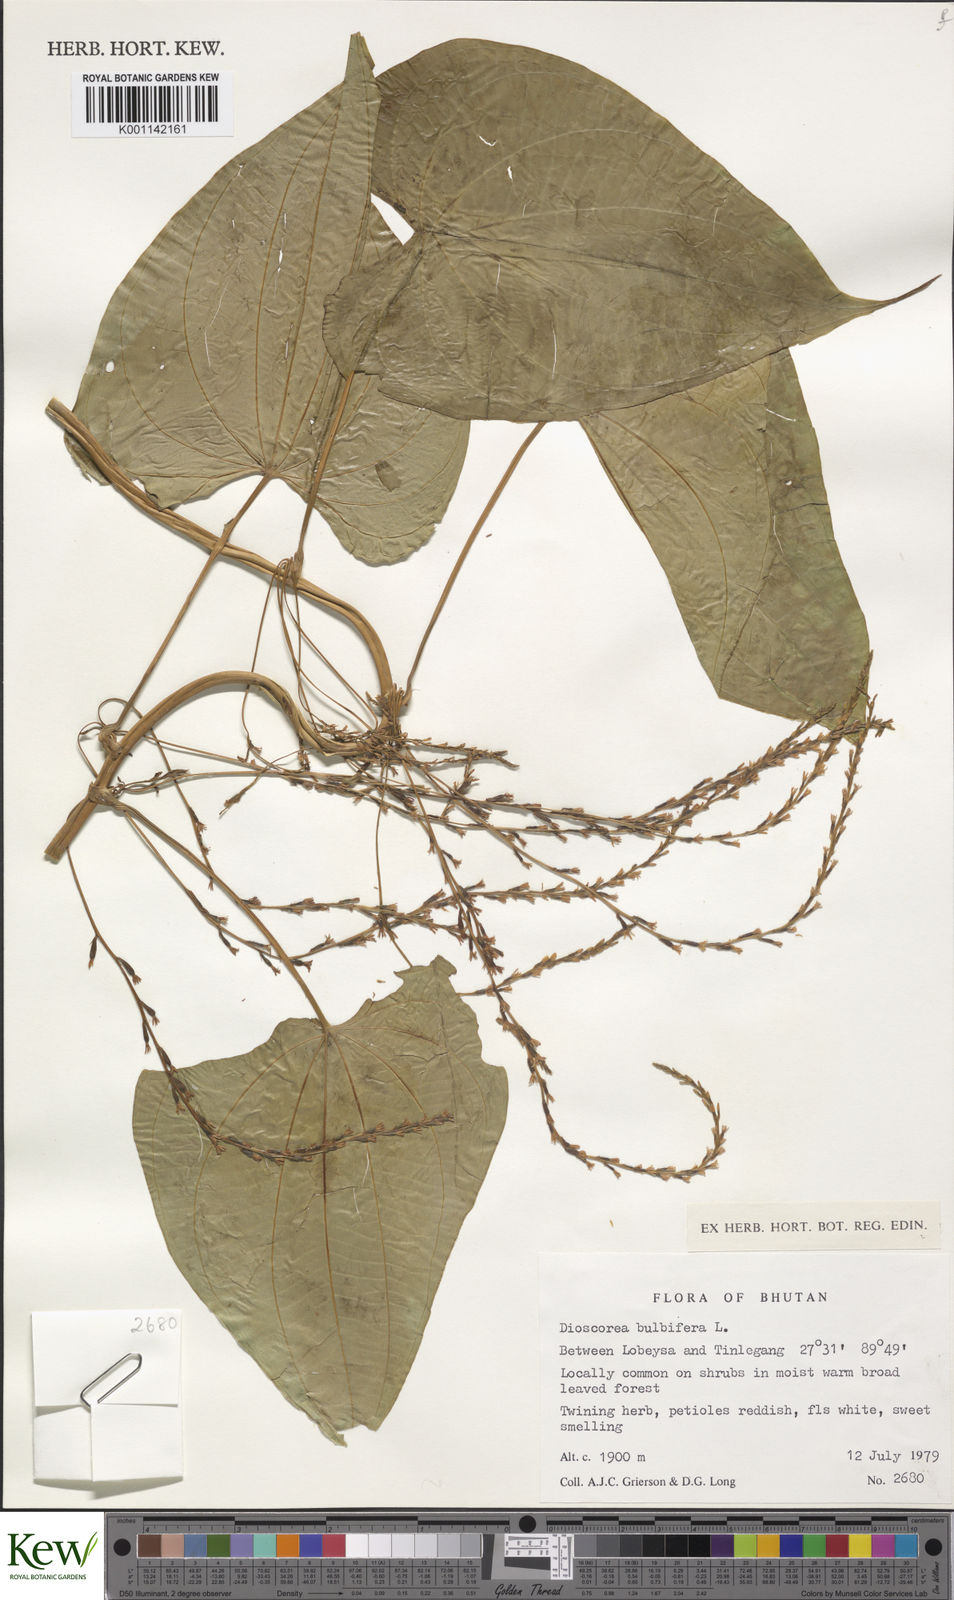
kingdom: Plantae
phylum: Tracheophyta
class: Liliopsida
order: Dioscoreales
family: Dioscoreaceae
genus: Dioscorea
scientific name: Dioscorea bulbifera
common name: Air yam
